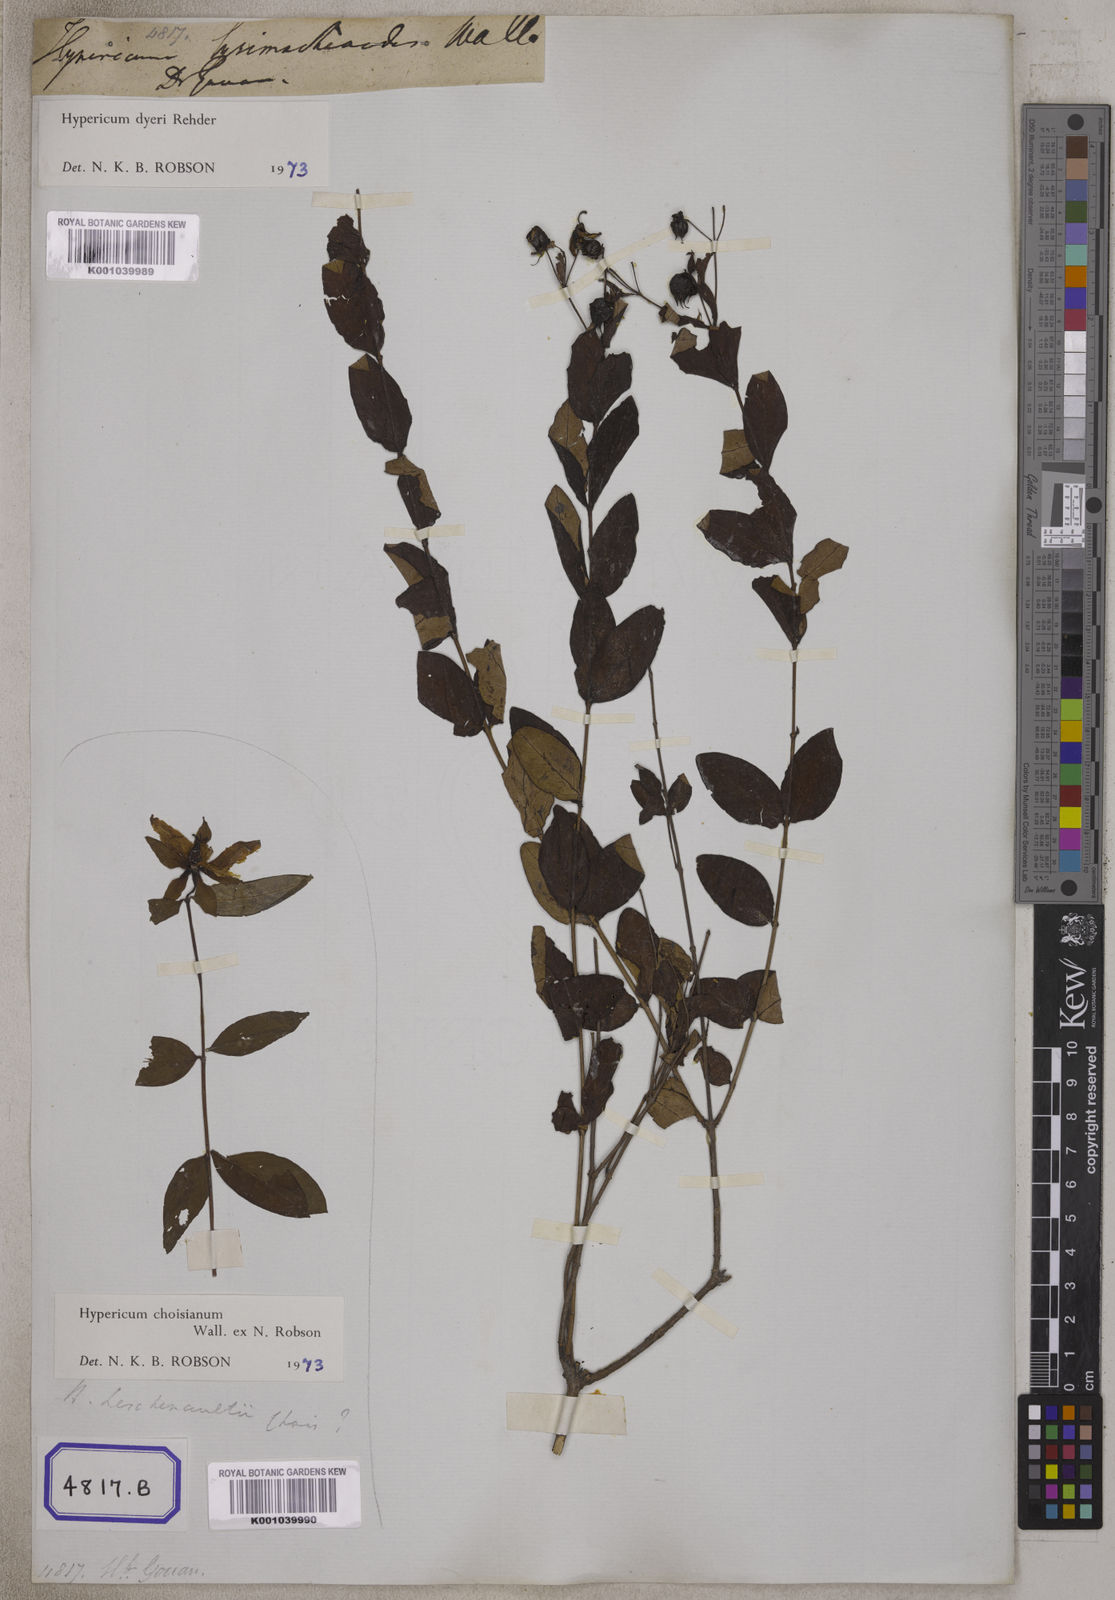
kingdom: Plantae
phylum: Tracheophyta
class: Magnoliopsida
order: Malpighiales
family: Hypericaceae
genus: Hypericum
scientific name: Hypericum
